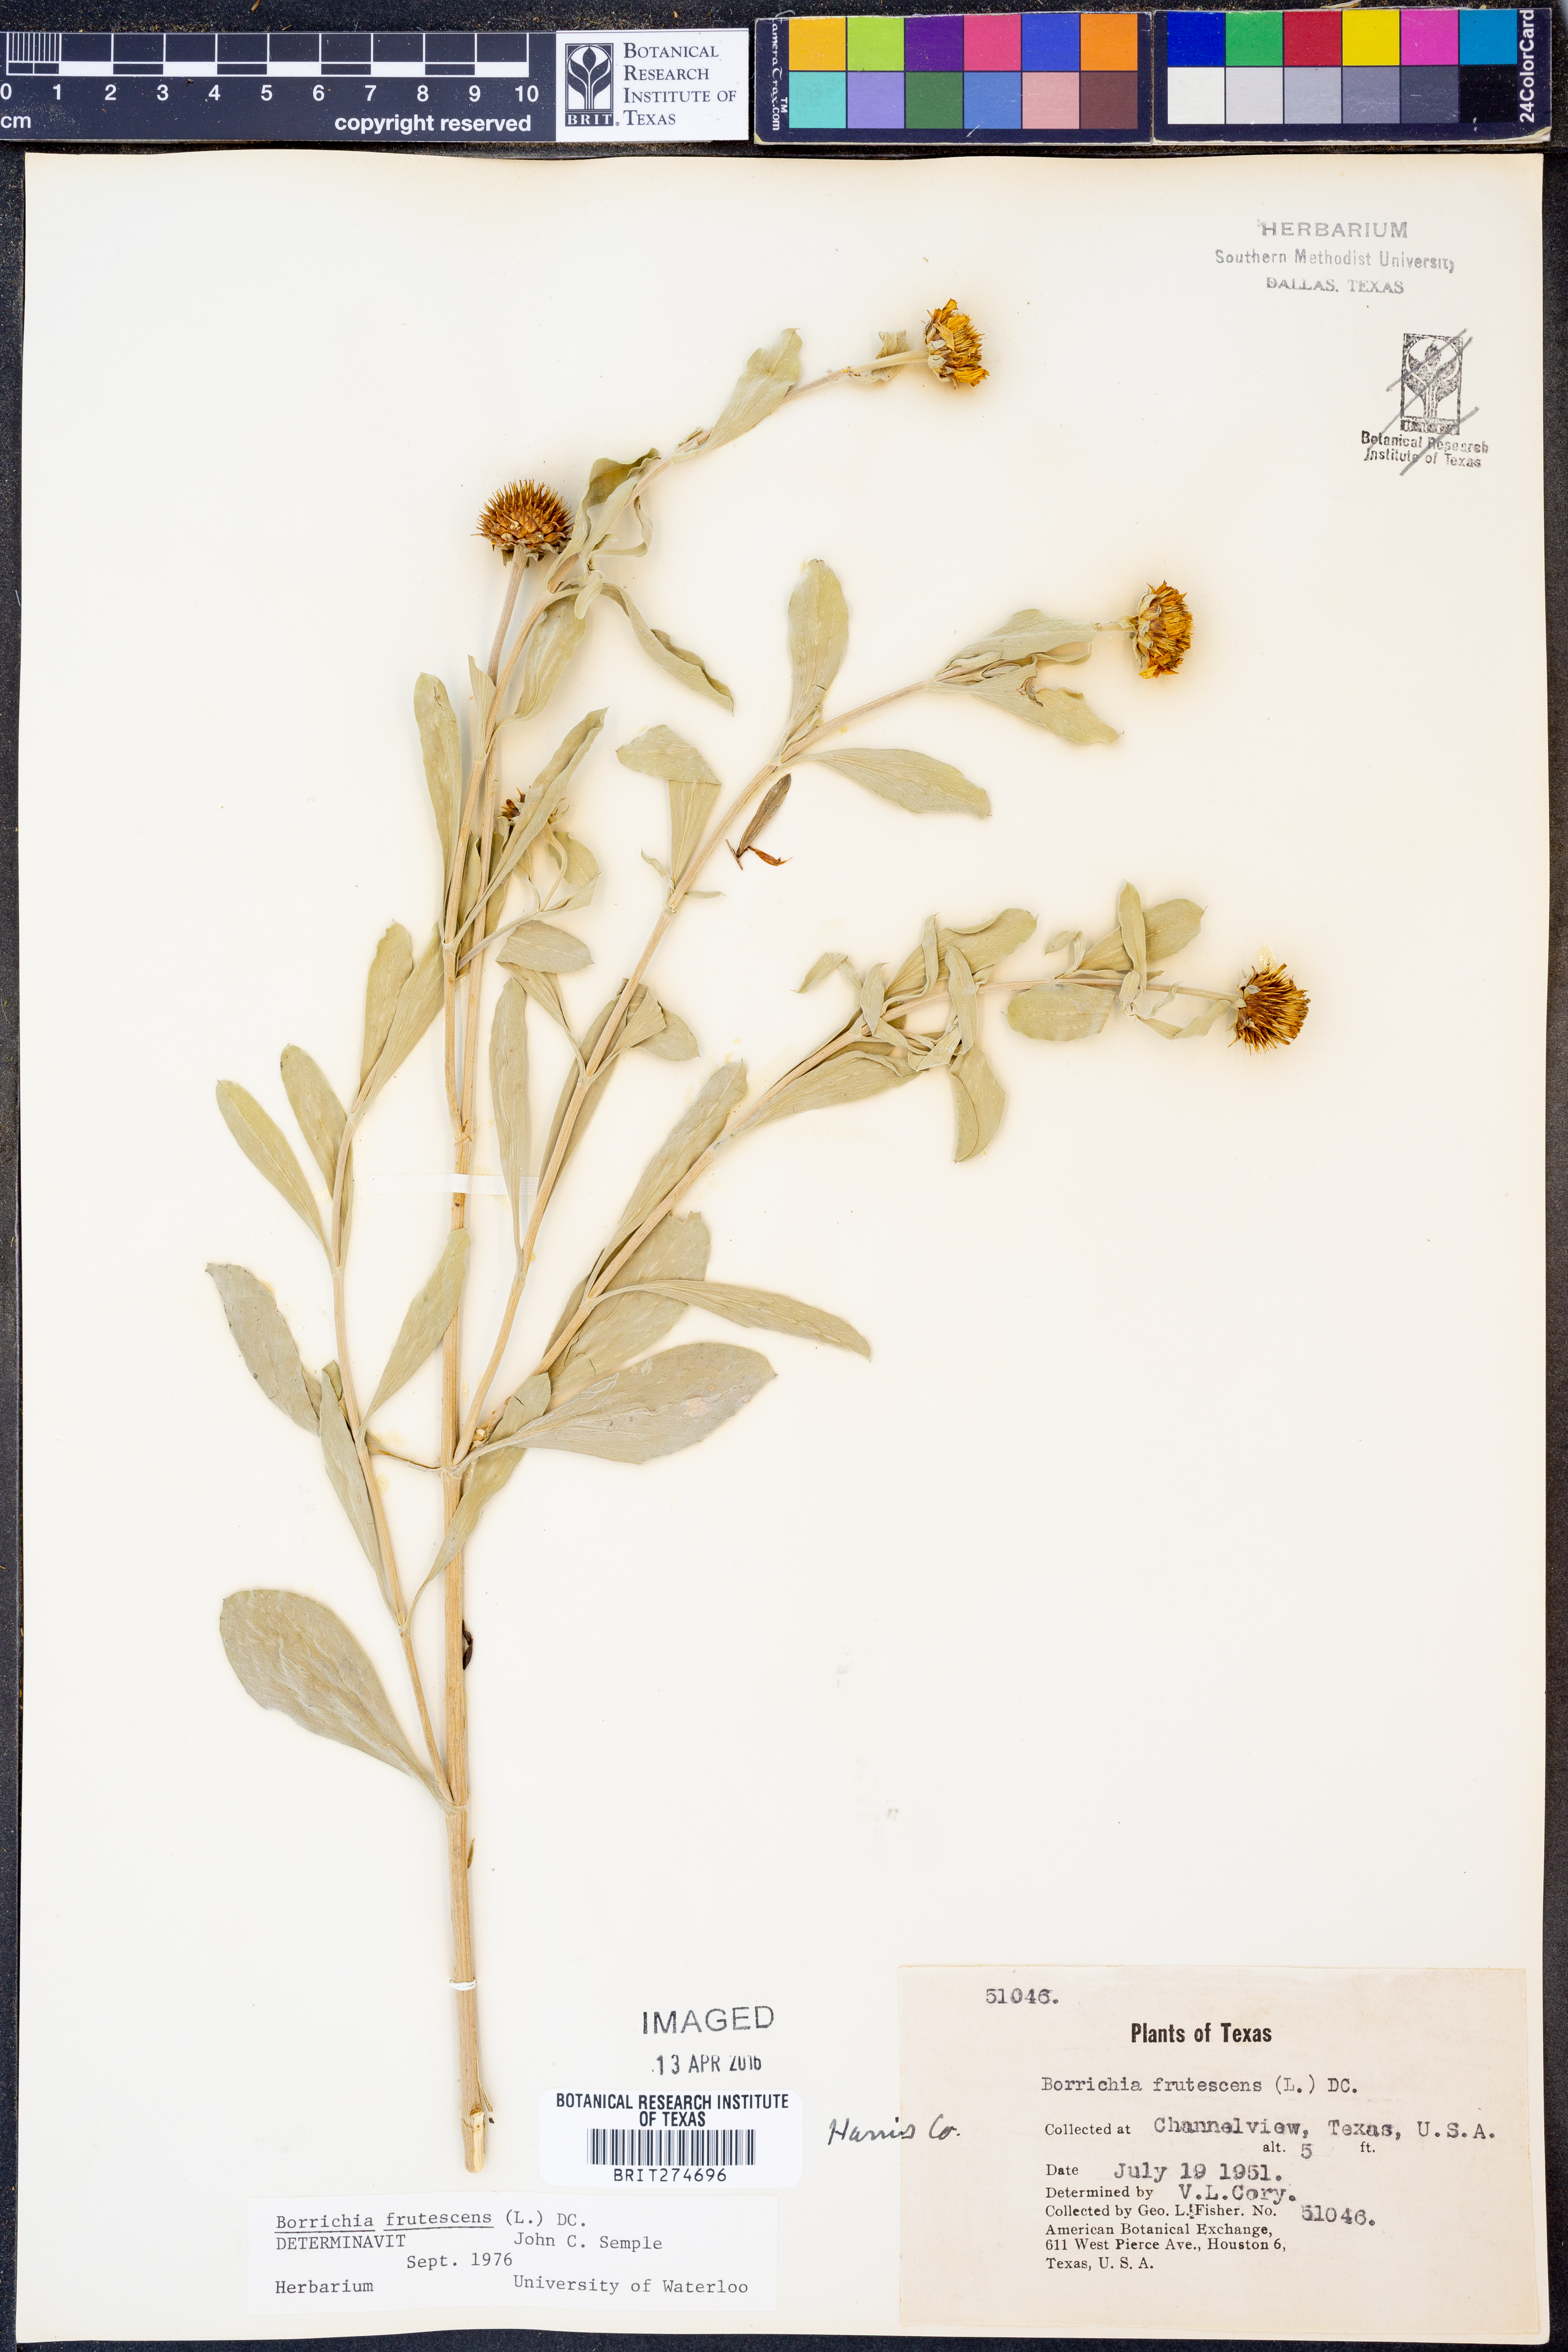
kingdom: Plantae
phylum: Tracheophyta
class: Magnoliopsida
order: Asterales
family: Asteraceae
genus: Borrichia
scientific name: Borrichia frutescens
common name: Sea oxeye
